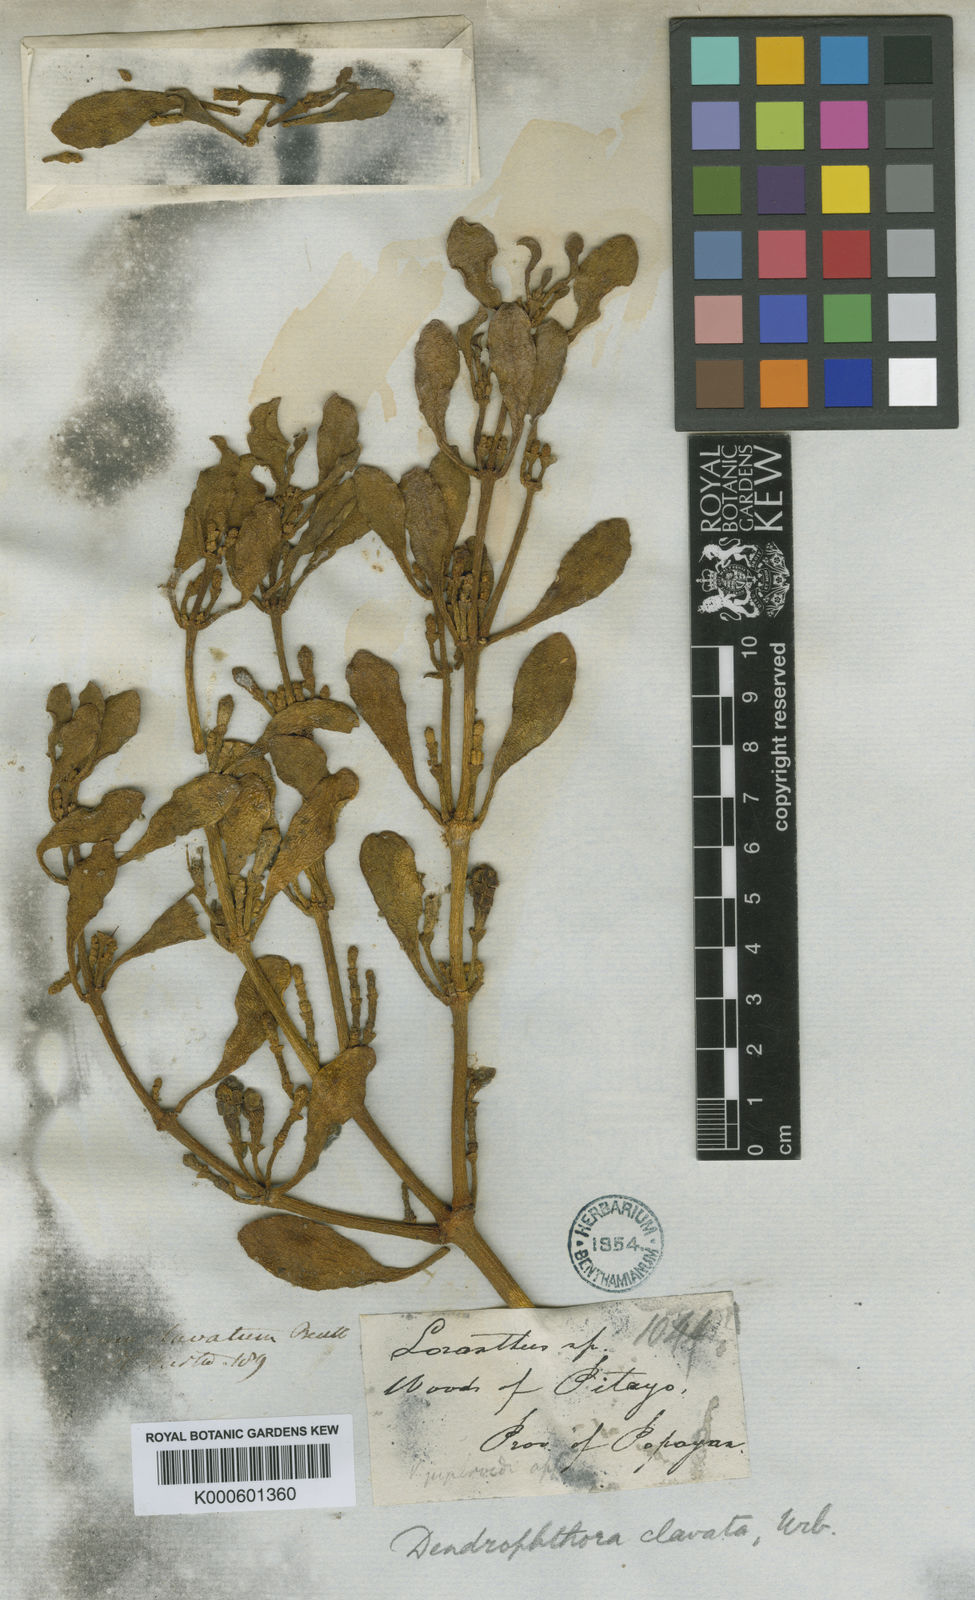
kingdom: Plantae
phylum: Tracheophyta
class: Magnoliopsida
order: Santalales
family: Viscaceae
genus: Dendrophthora
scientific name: Dendrophthora clavata
